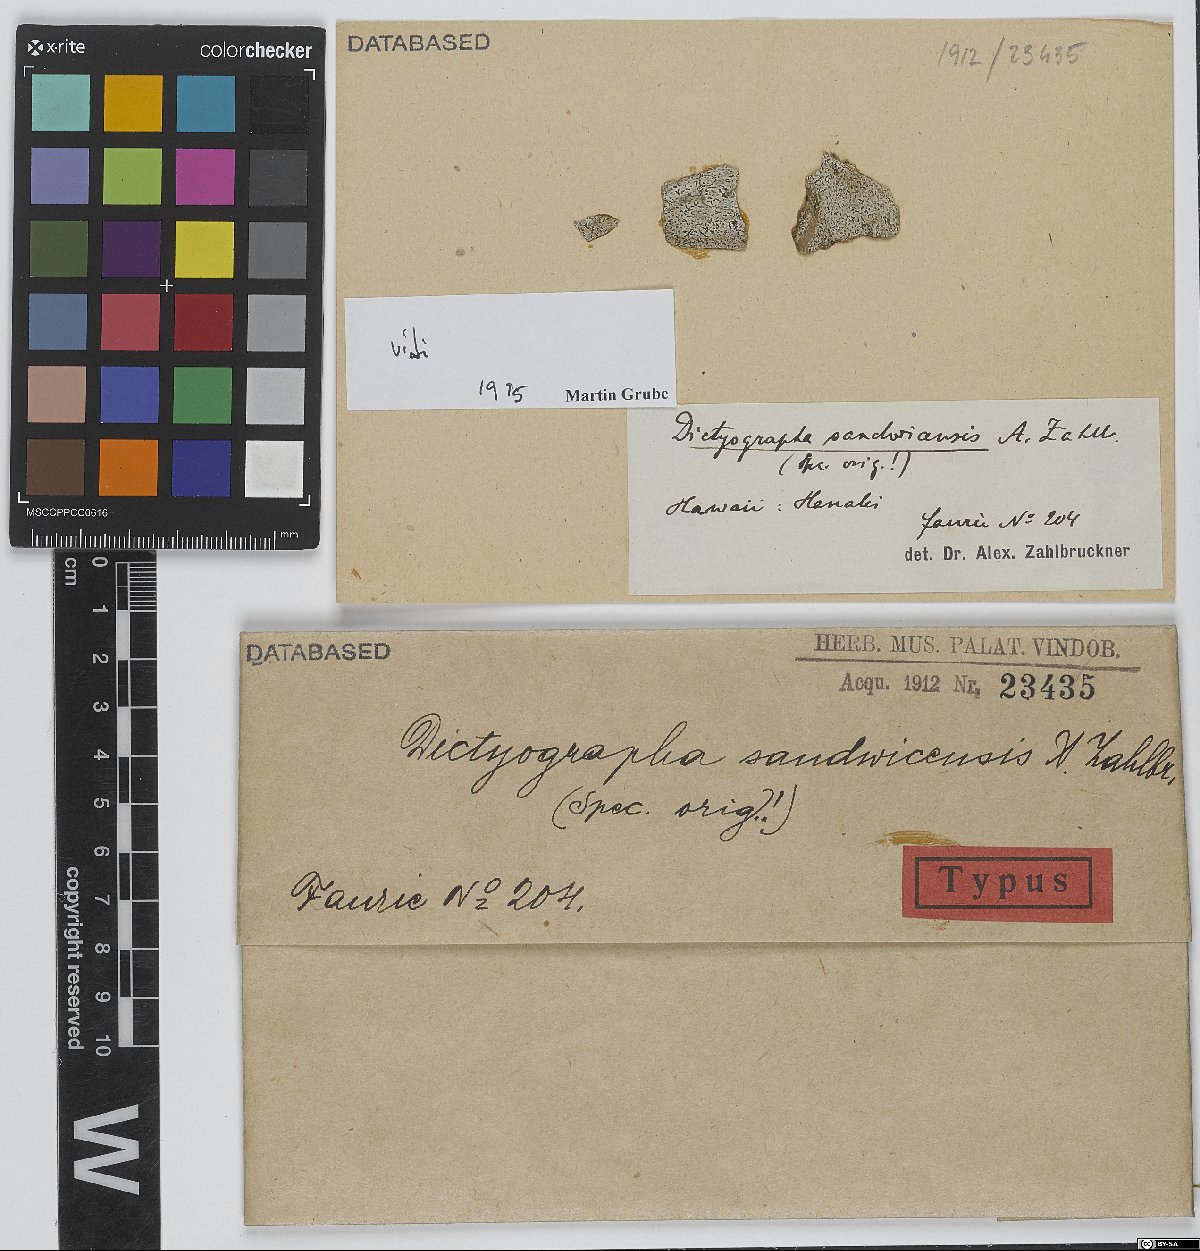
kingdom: Fungi
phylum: Ascomycota
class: Arthoniomycetes
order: Arthoniales
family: Opegraphaceae
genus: Dictyographa
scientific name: Dictyographa
